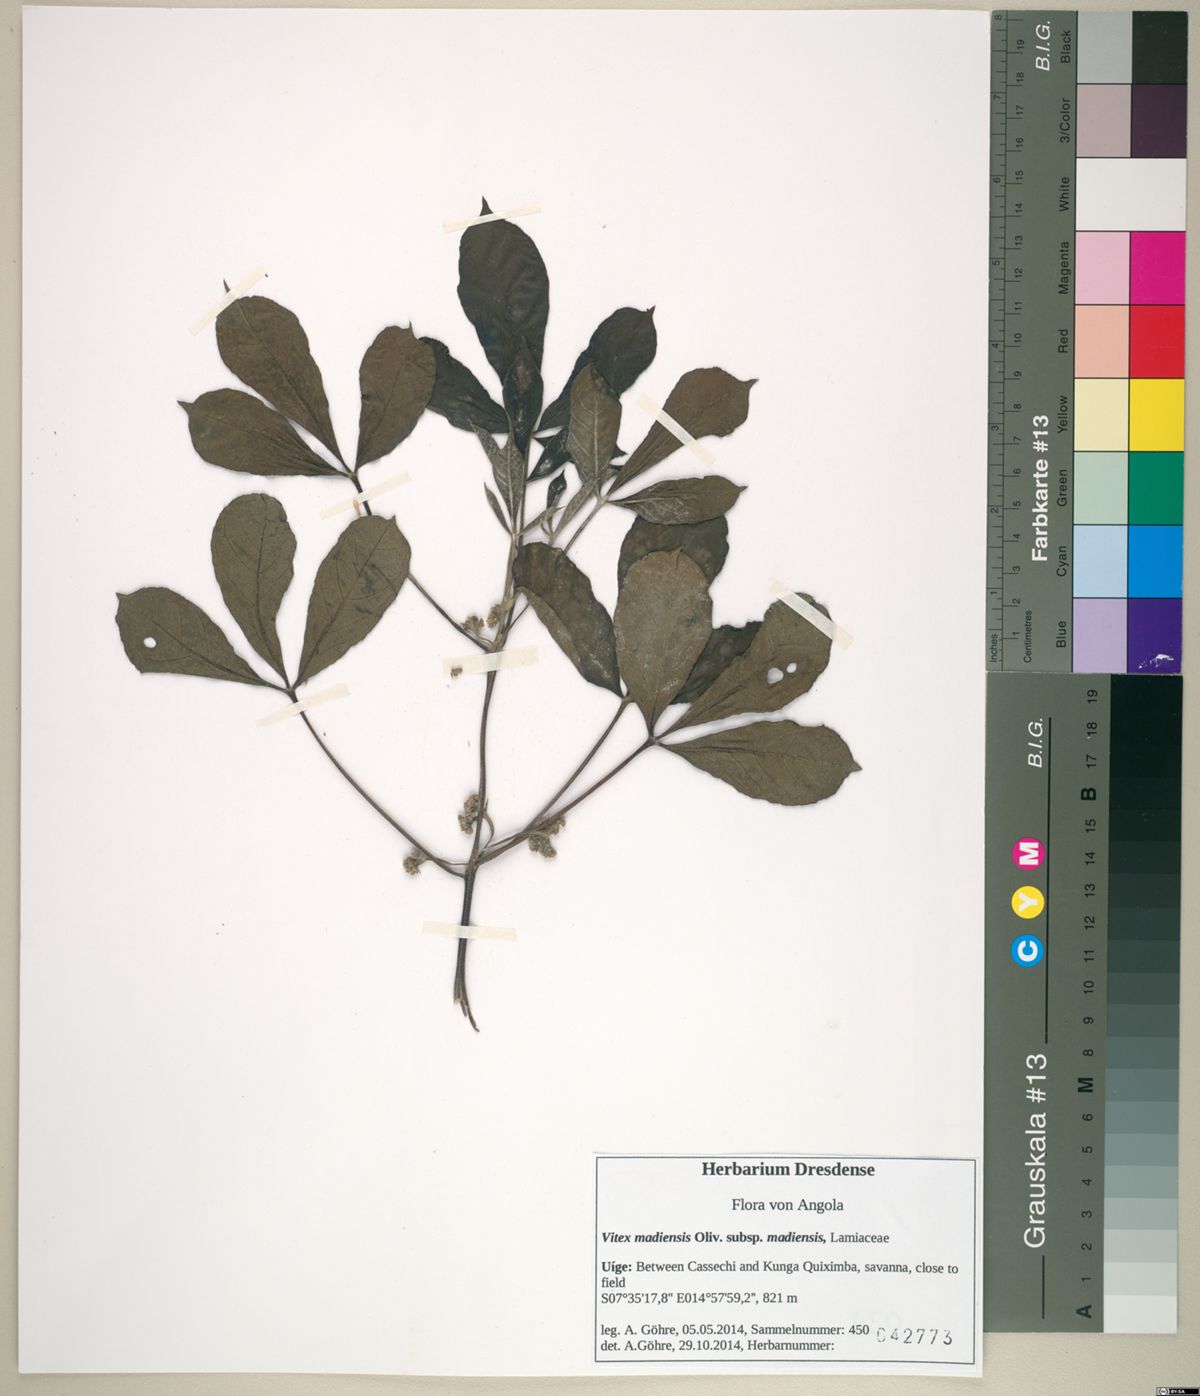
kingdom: Plantae
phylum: Tracheophyta
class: Magnoliopsida
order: Lamiales
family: Lamiaceae
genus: Vitex
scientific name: Vitex madiensis
